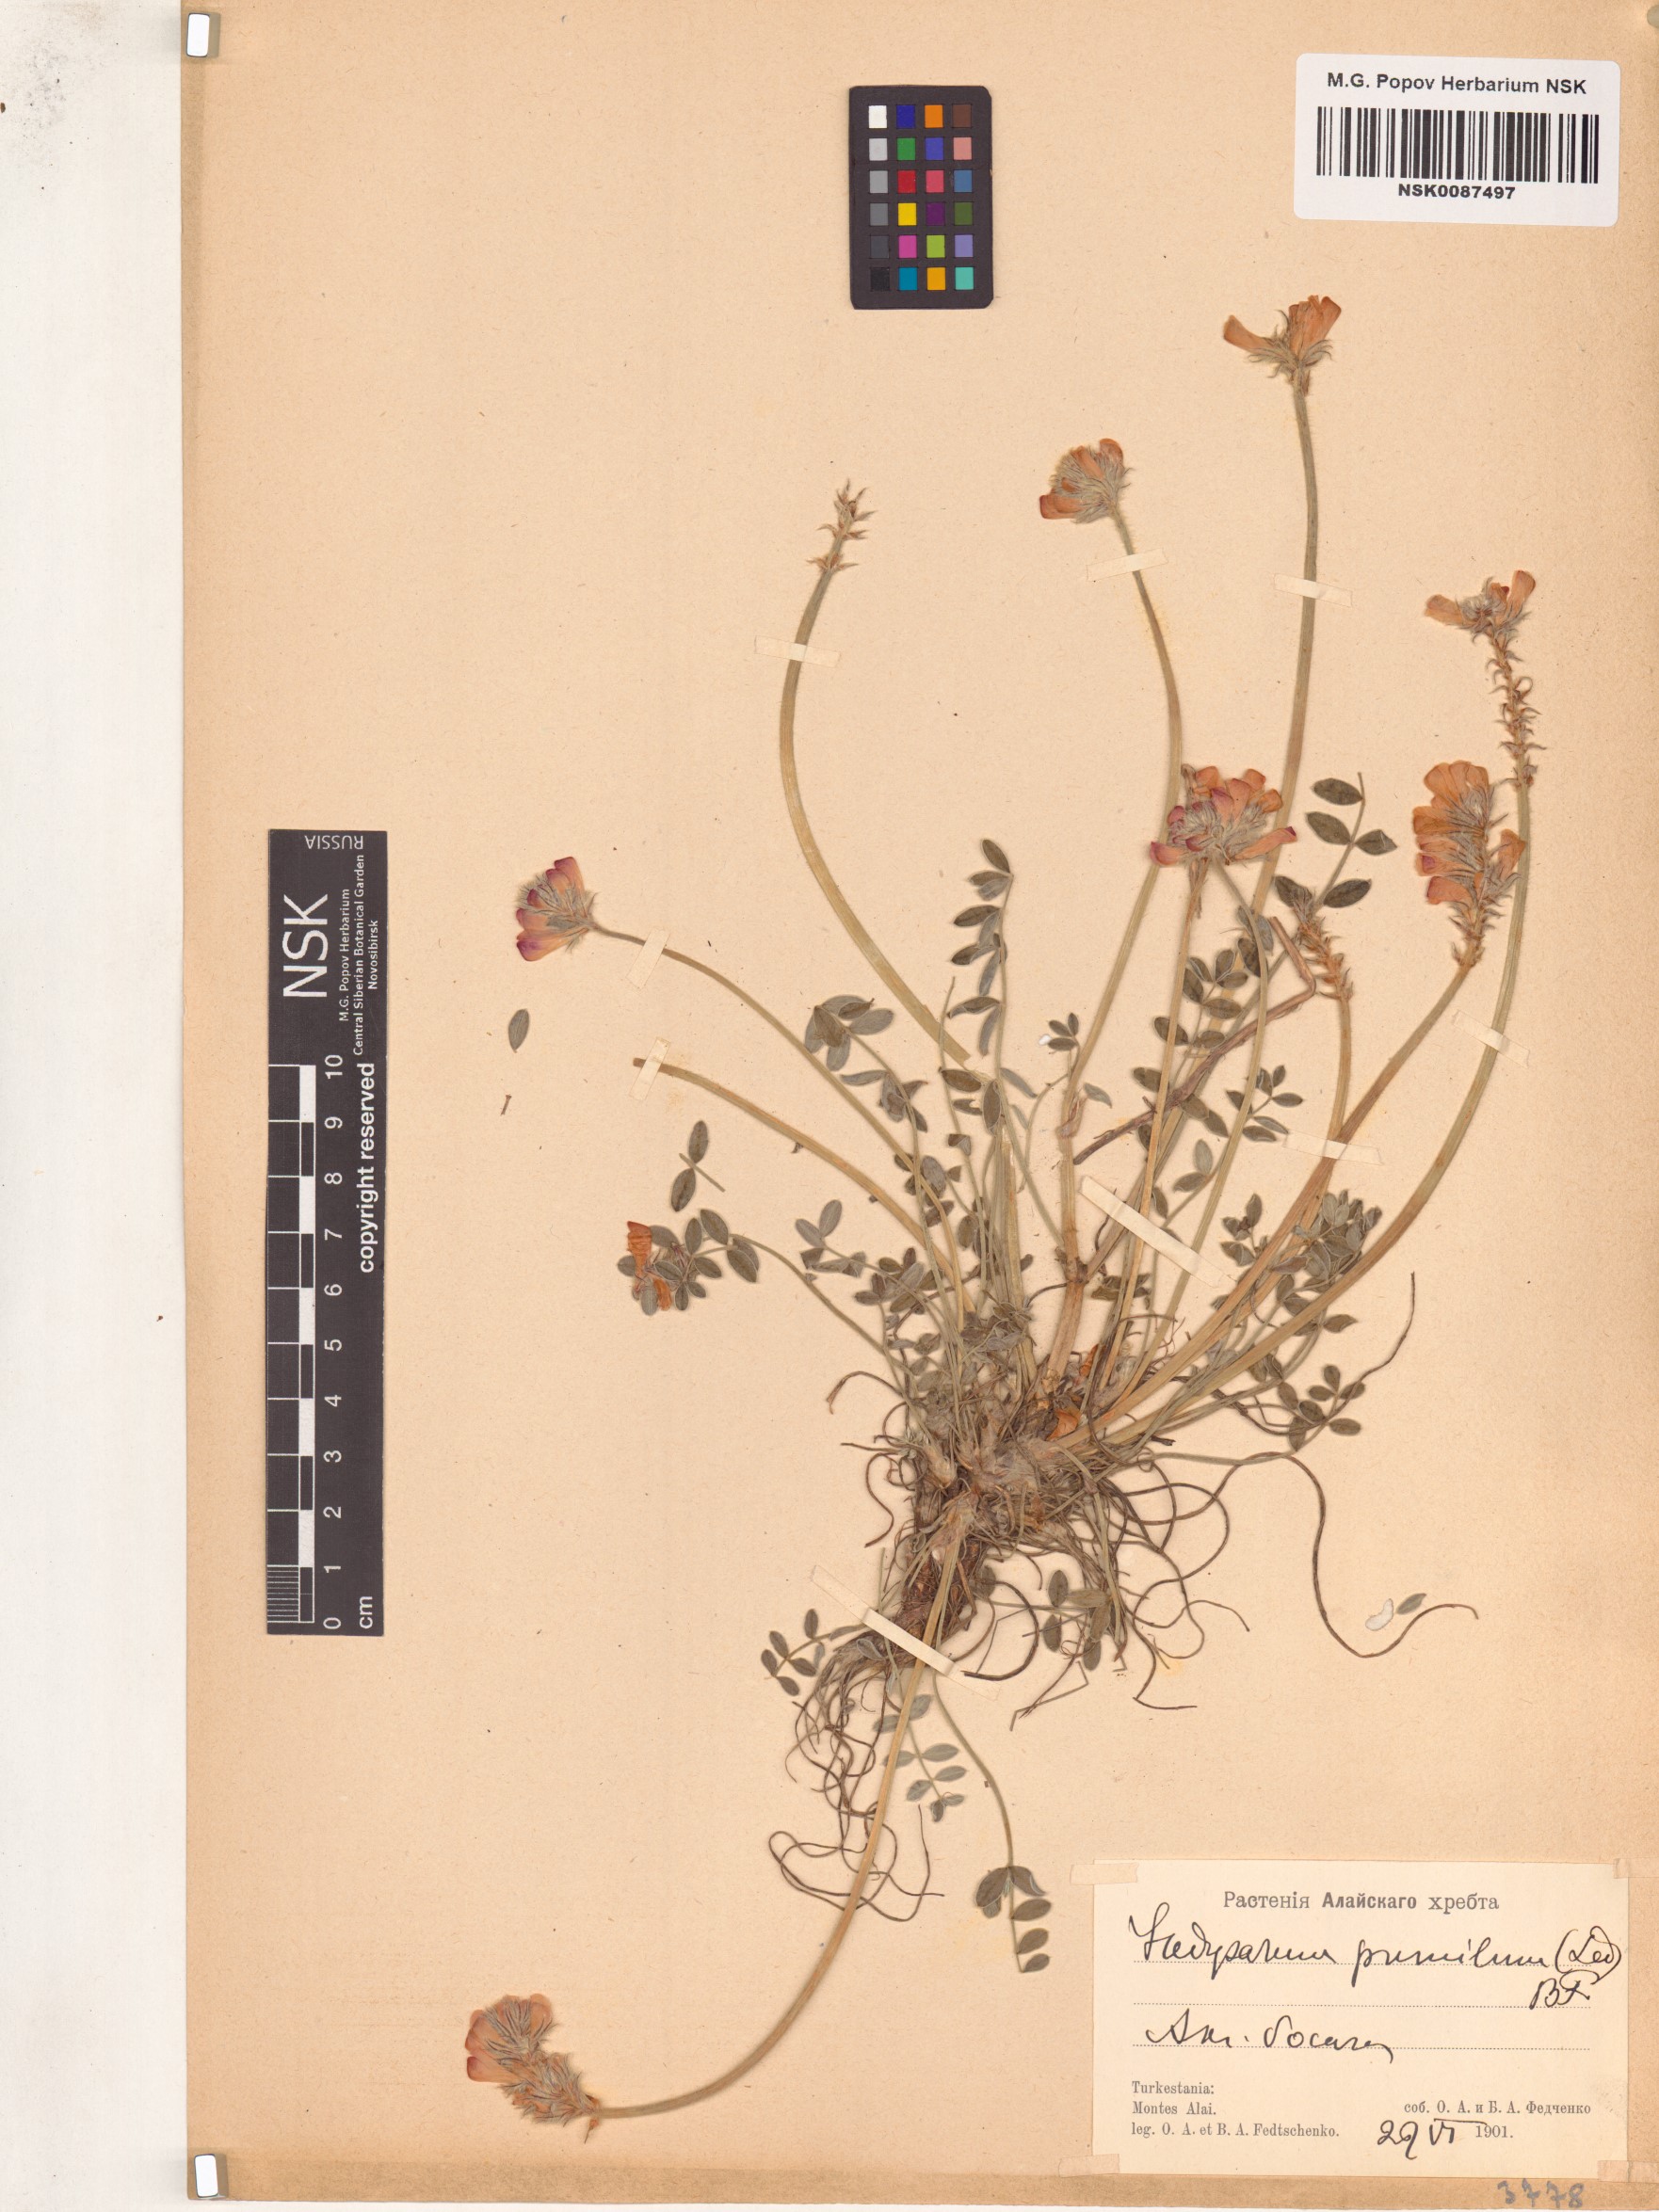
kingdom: Plantae
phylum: Tracheophyta
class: Magnoliopsida
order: Fabales
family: Fabaceae
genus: Hedysarum
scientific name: Hedysarum ferganense
